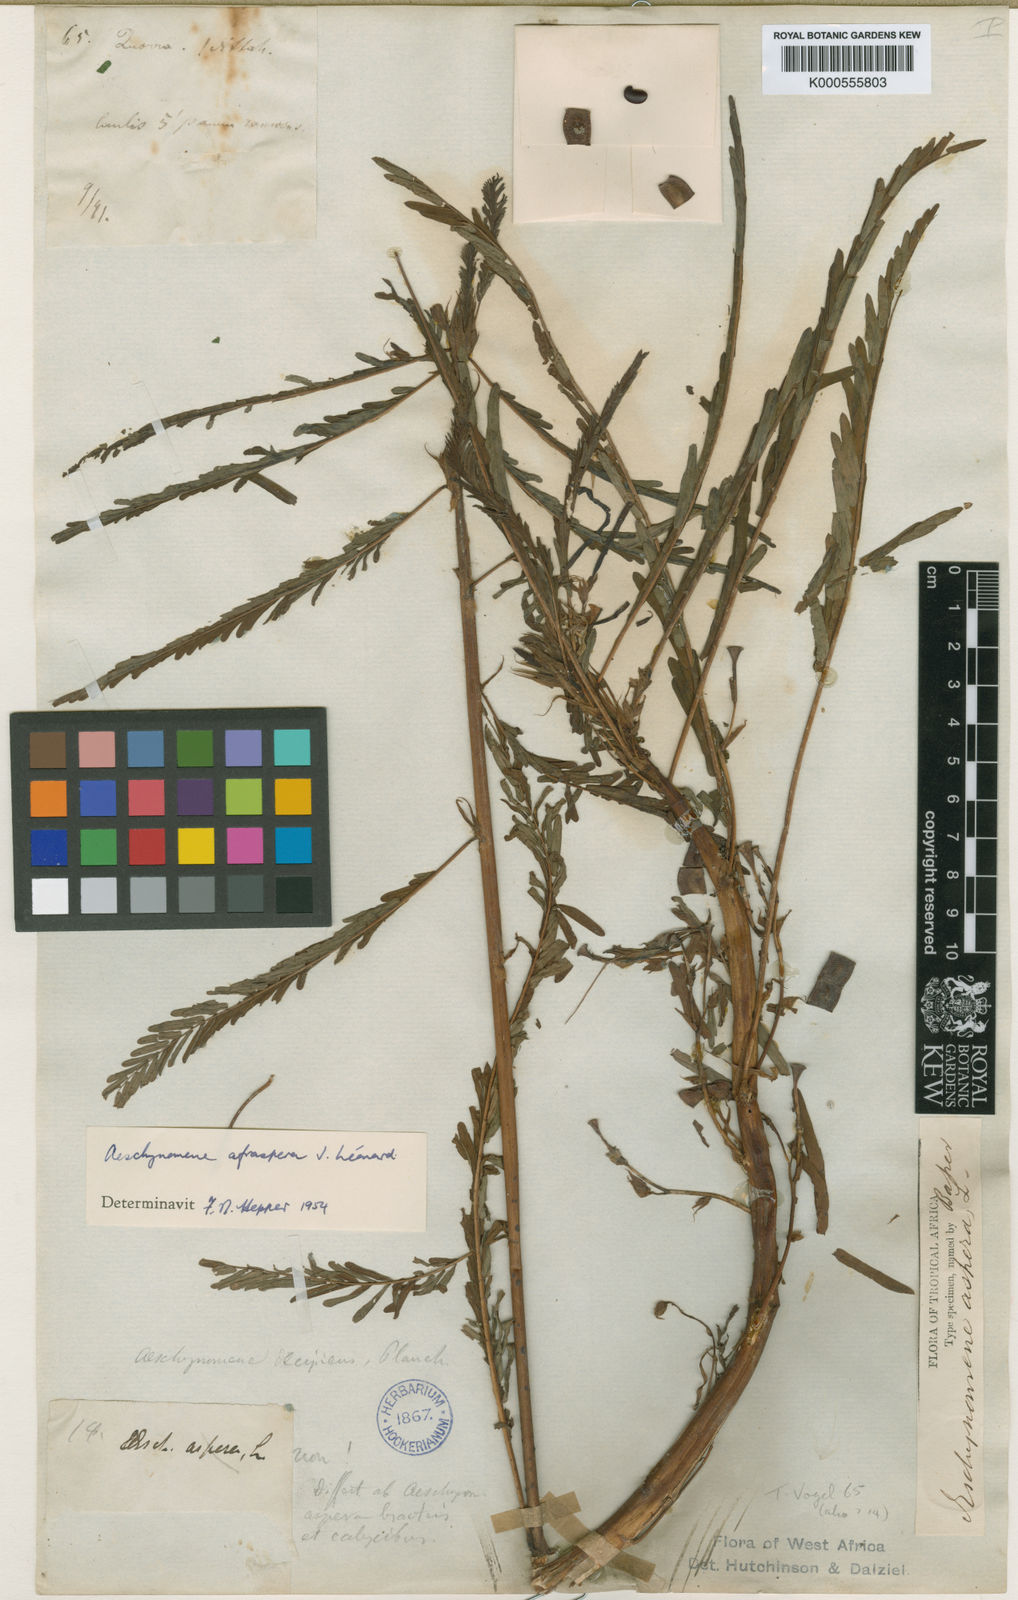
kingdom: Plantae
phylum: Tracheophyta
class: Magnoliopsida
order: Fabales
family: Fabaceae
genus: Aeschynomene
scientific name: Aeschynomene afraspera
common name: Sola pith
